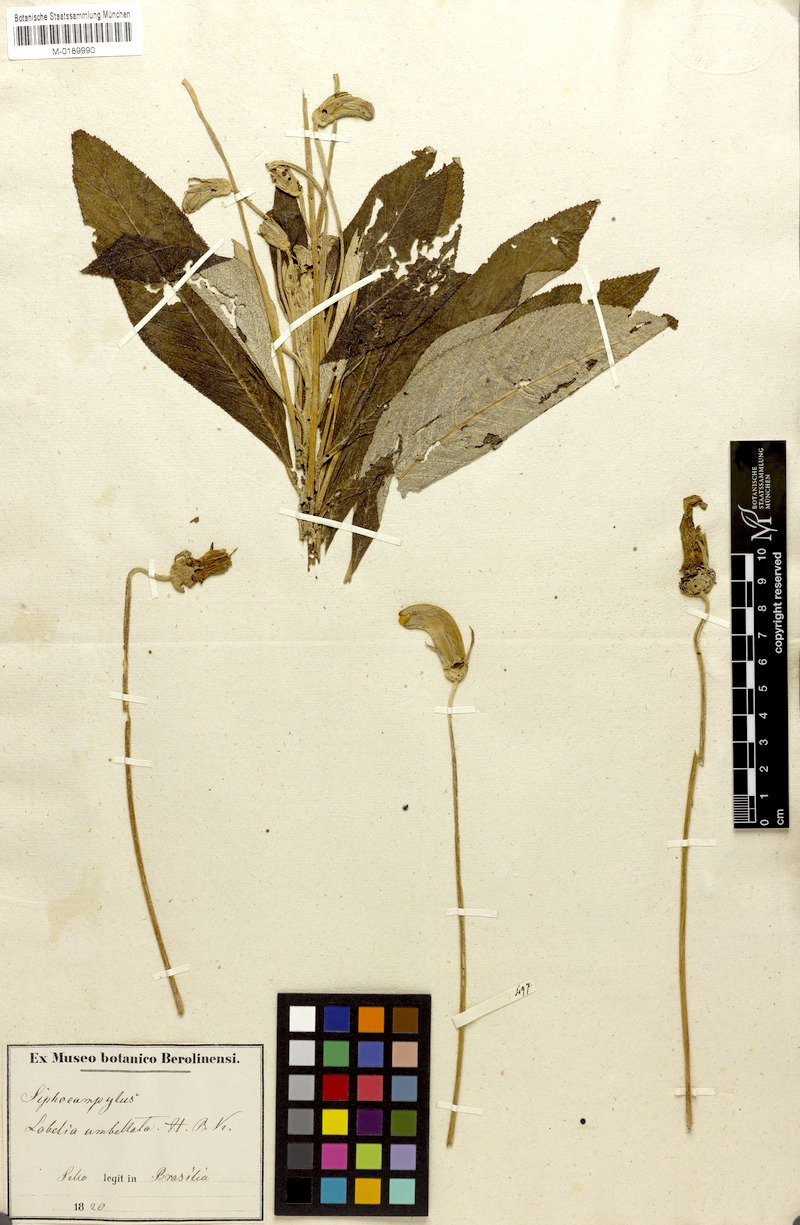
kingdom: Plantae
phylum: Tracheophyta
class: Magnoliopsida
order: Asterales
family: Campanulaceae
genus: Siphocampylus
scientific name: Siphocampylus umbellatus
